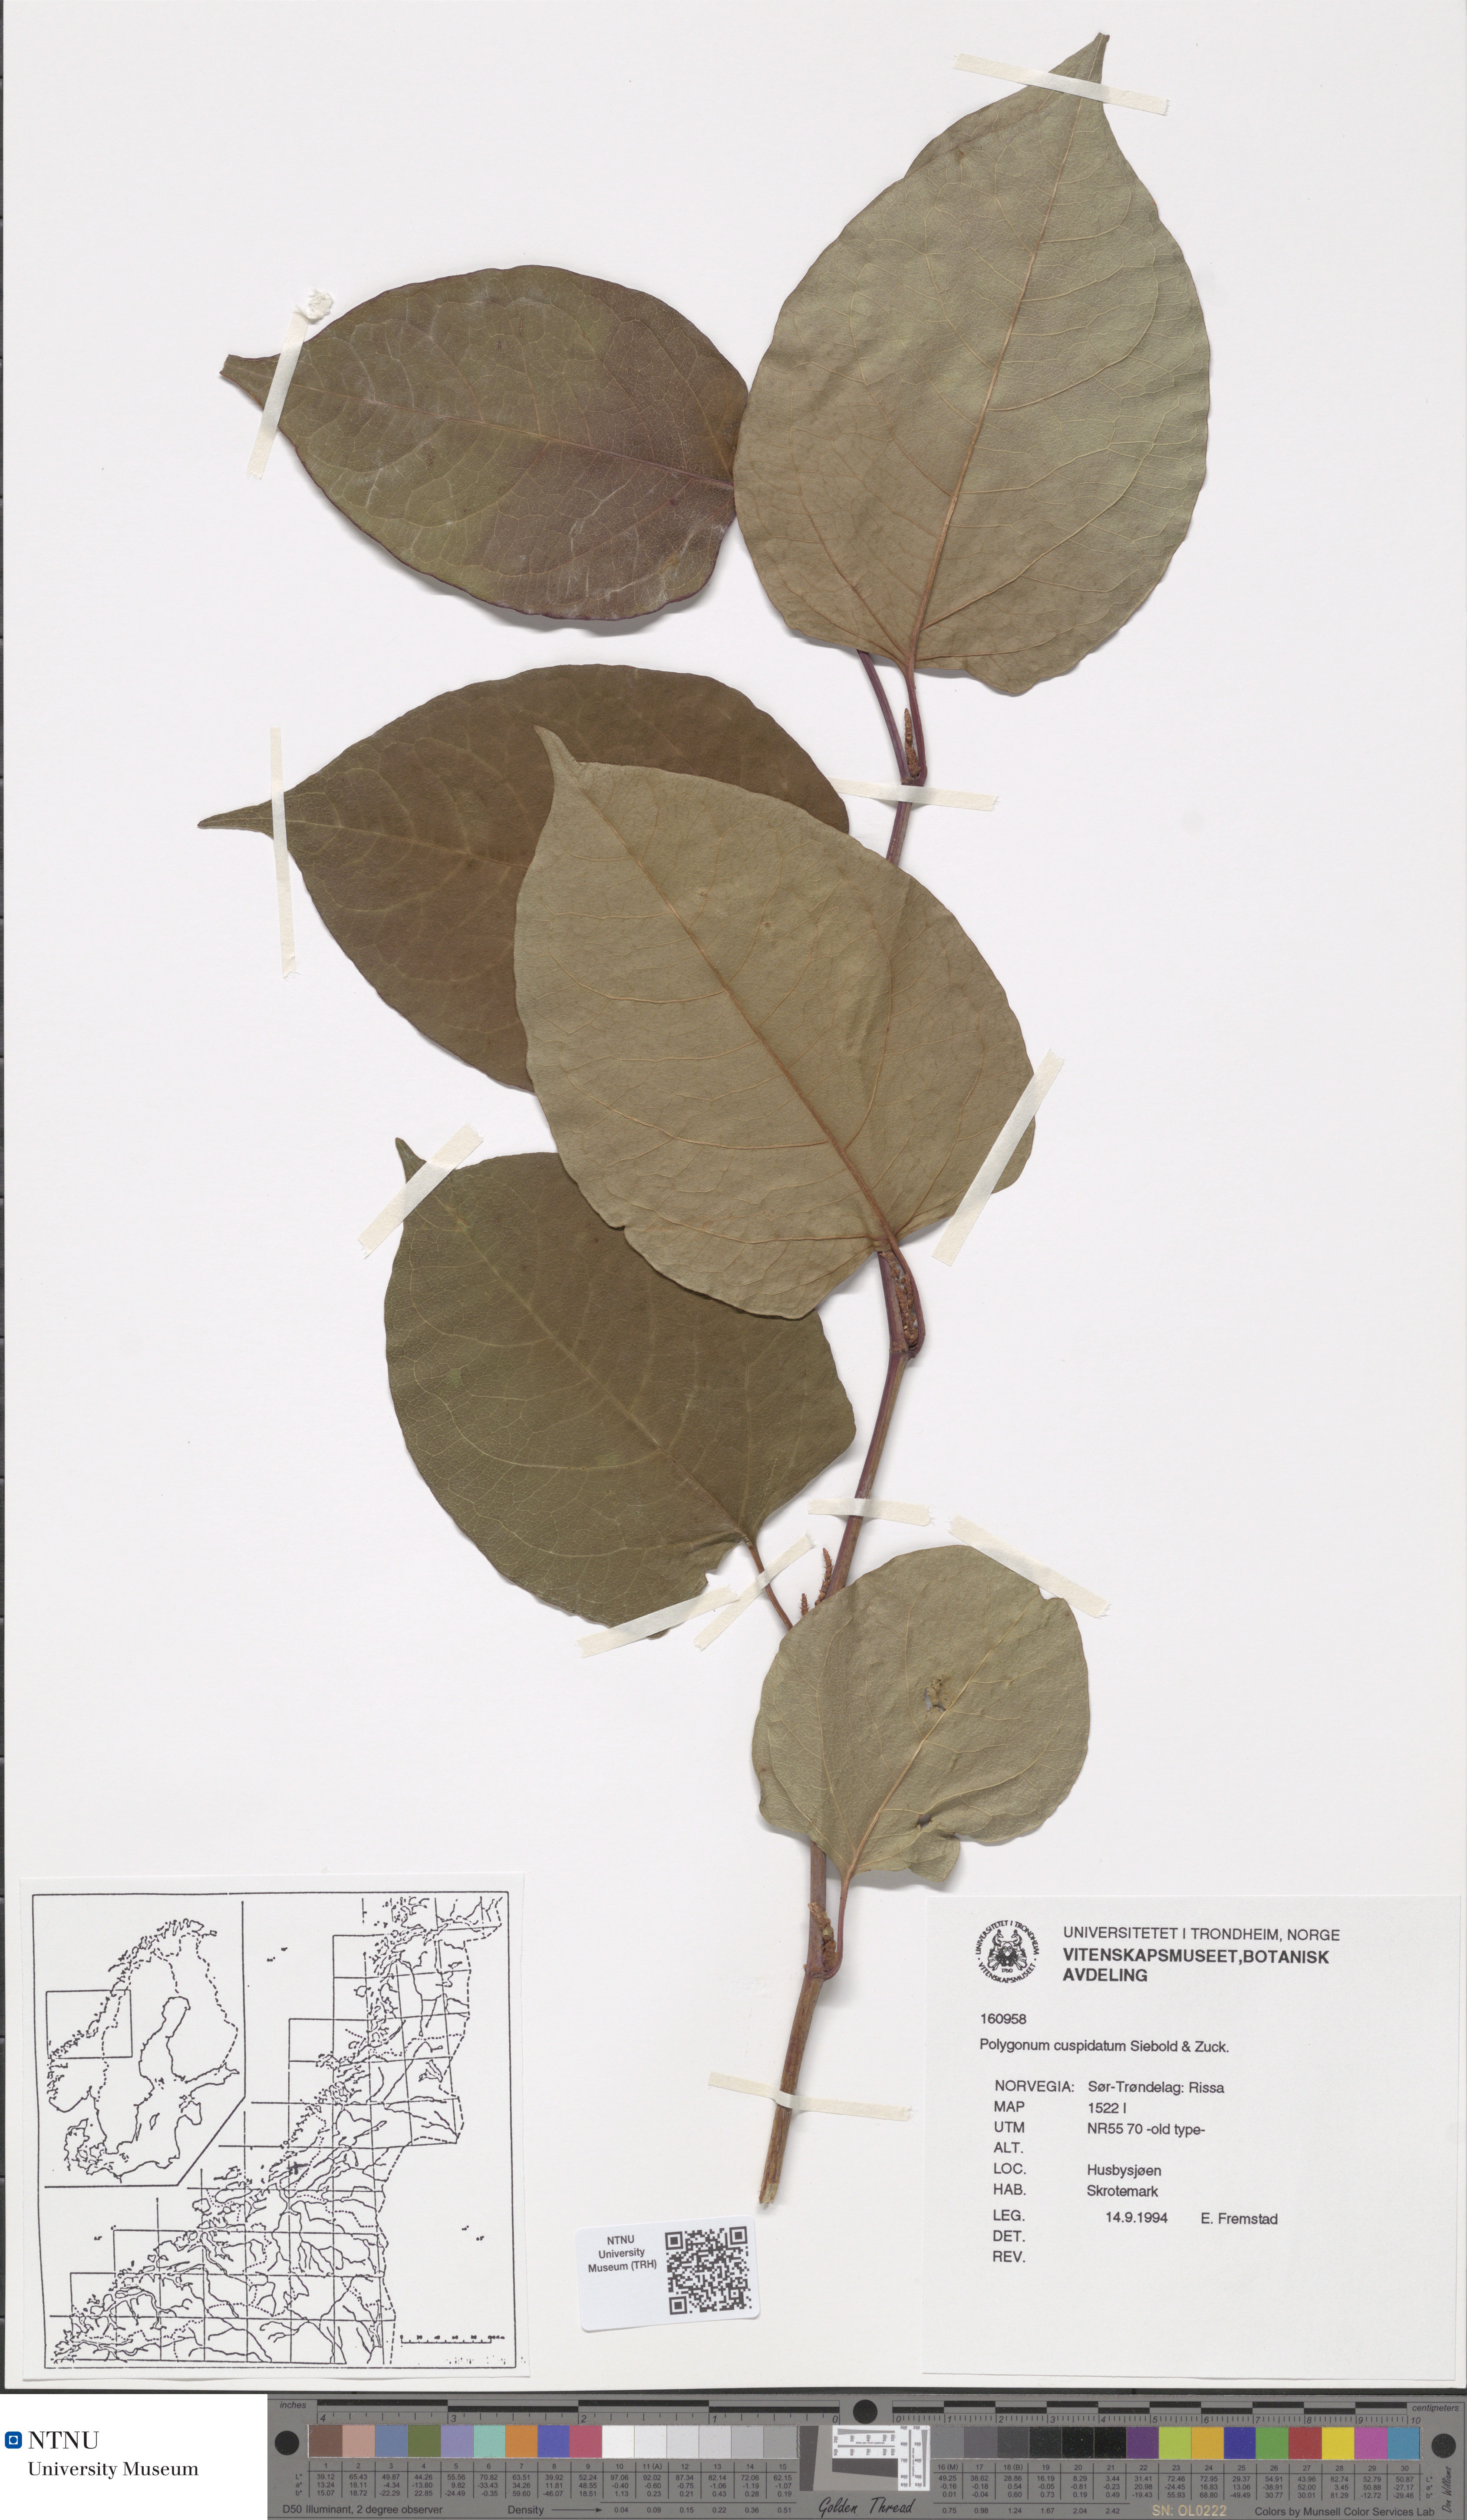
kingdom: Plantae
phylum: Tracheophyta
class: Magnoliopsida
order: Caryophyllales
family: Polygonaceae
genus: Reynoutria
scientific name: Reynoutria japonica
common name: Japanese knotweed
